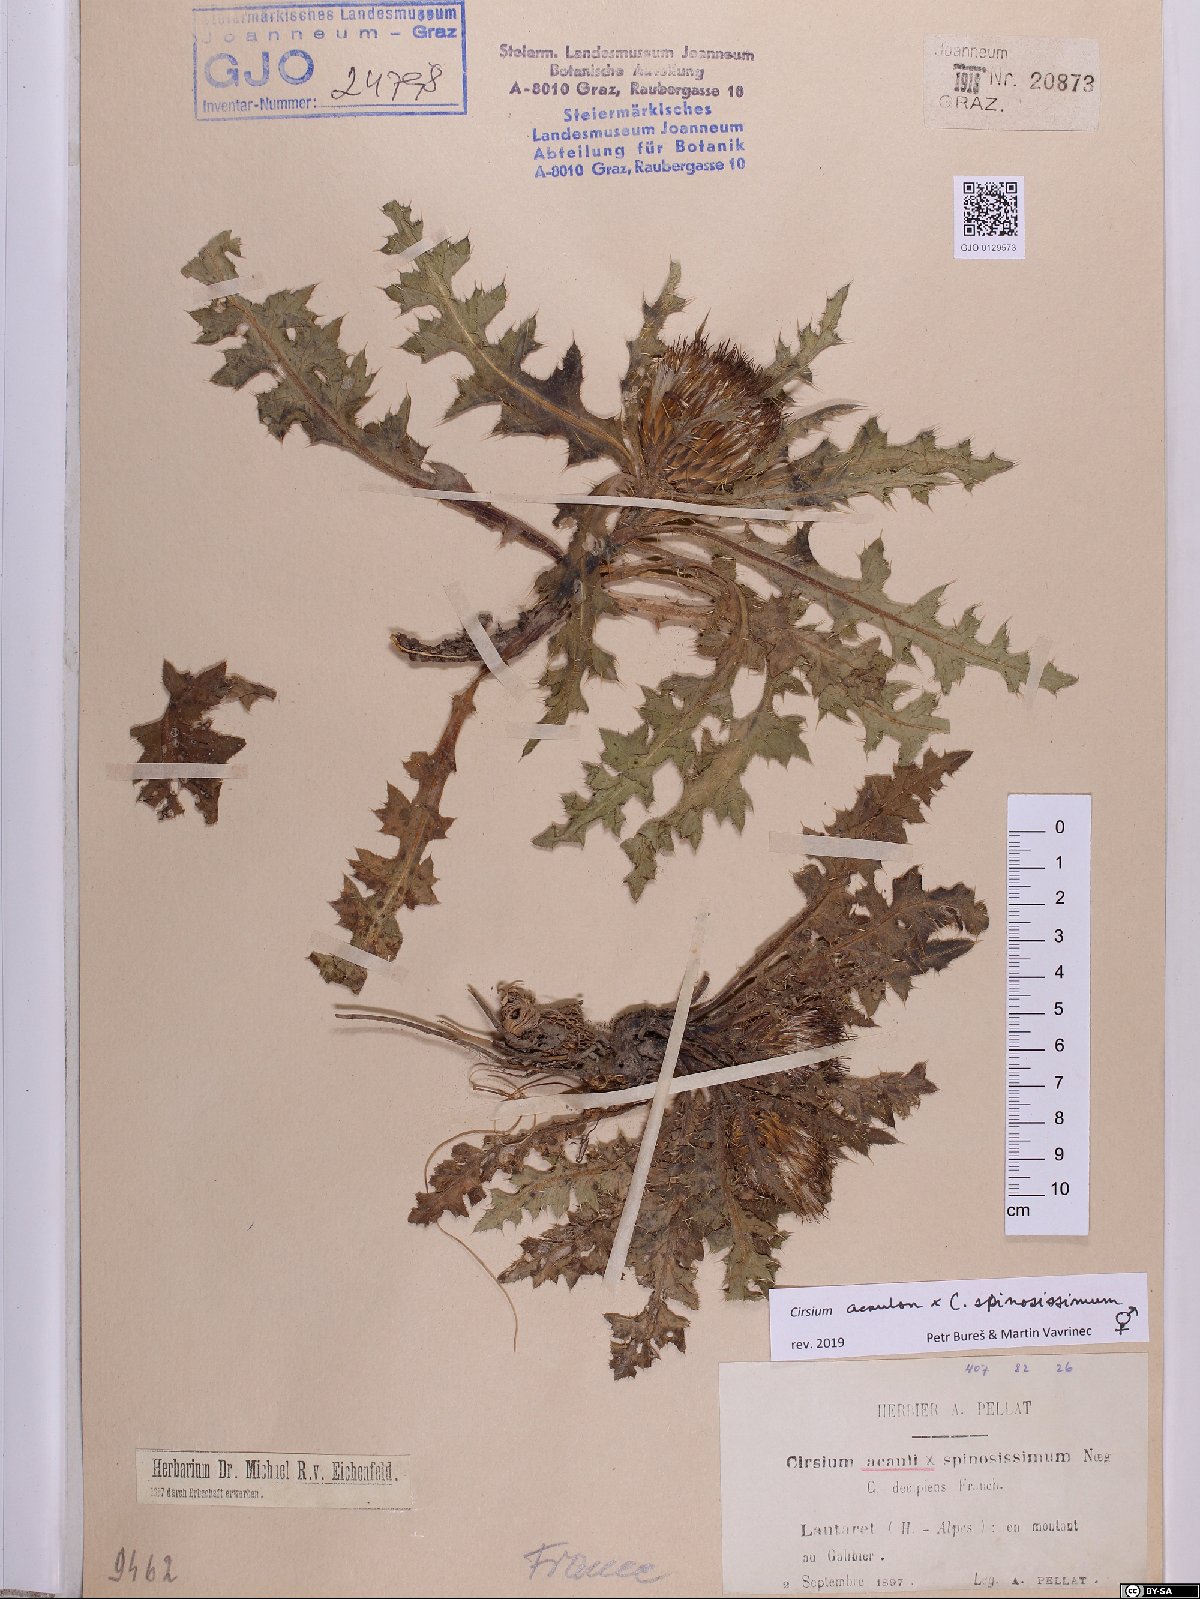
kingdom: Plantae
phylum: Tracheophyta
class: Magnoliopsida
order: Asterales
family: Asteraceae
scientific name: Asteraceae
